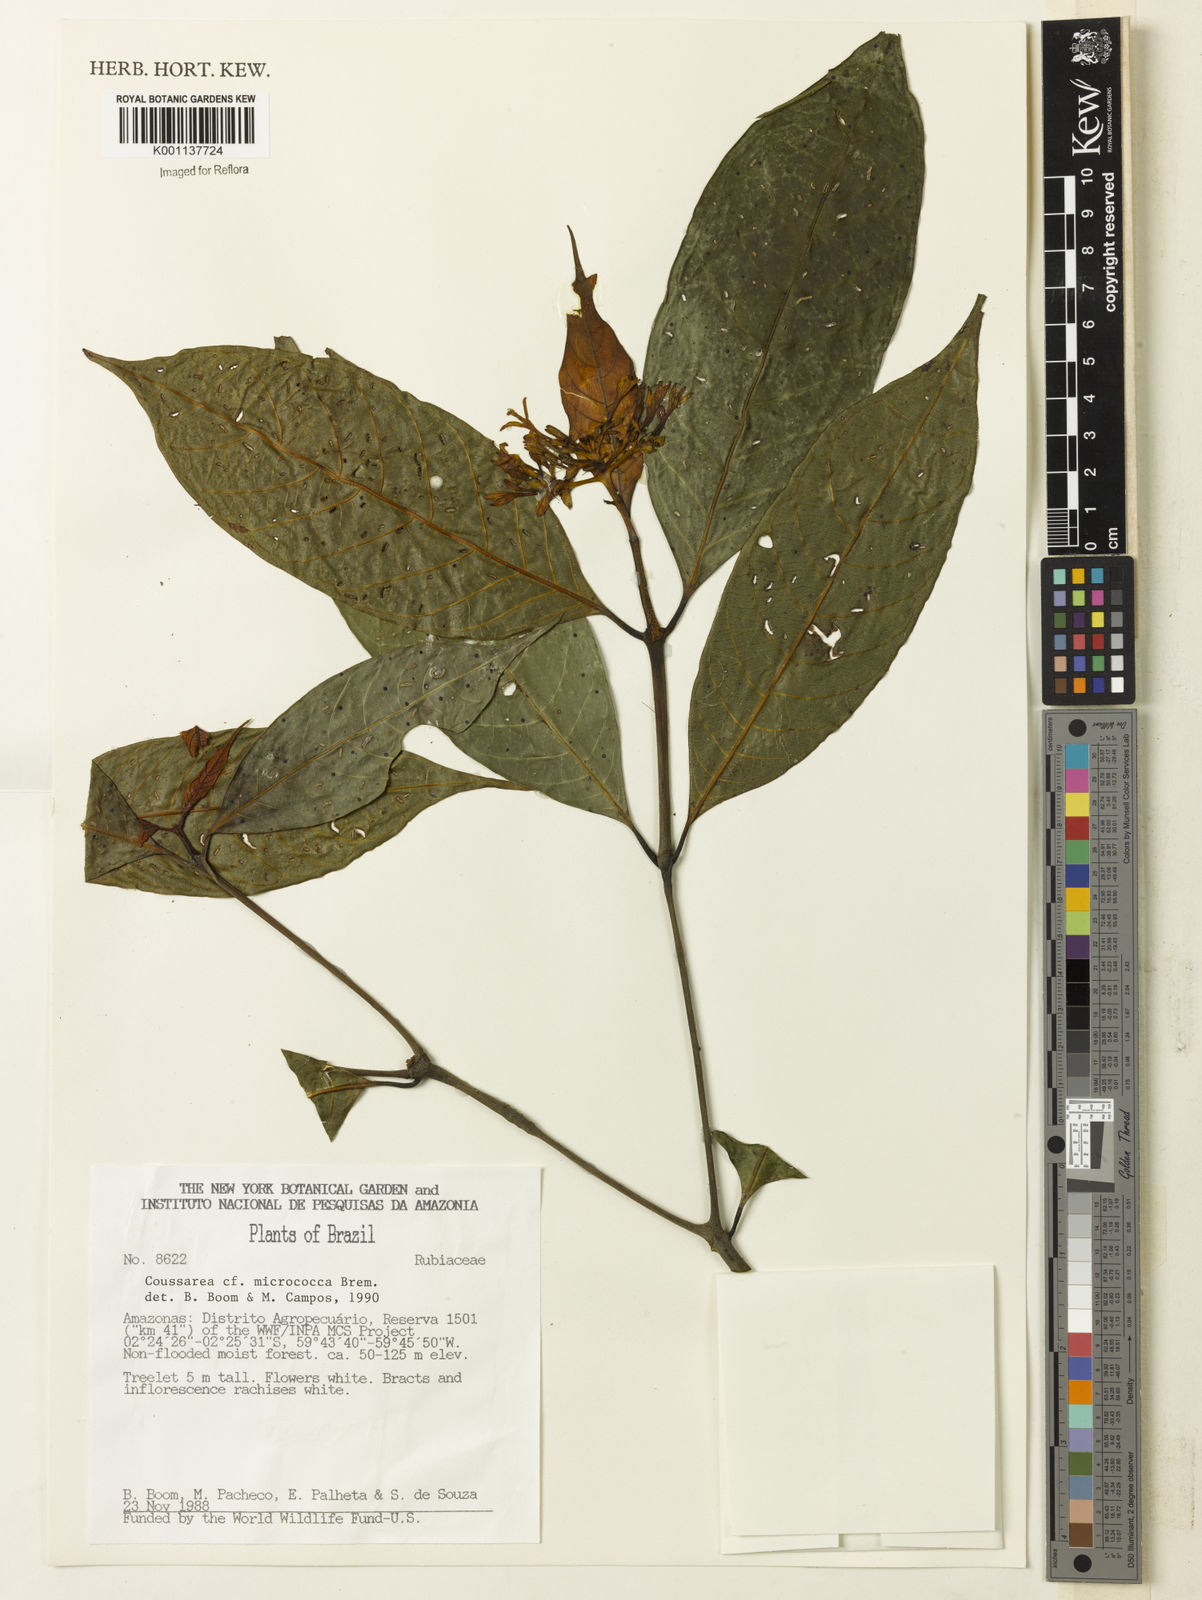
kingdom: Plantae
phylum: Tracheophyta
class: Magnoliopsida
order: Gentianales
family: Rubiaceae
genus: Coussarea
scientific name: Coussarea micrococca
